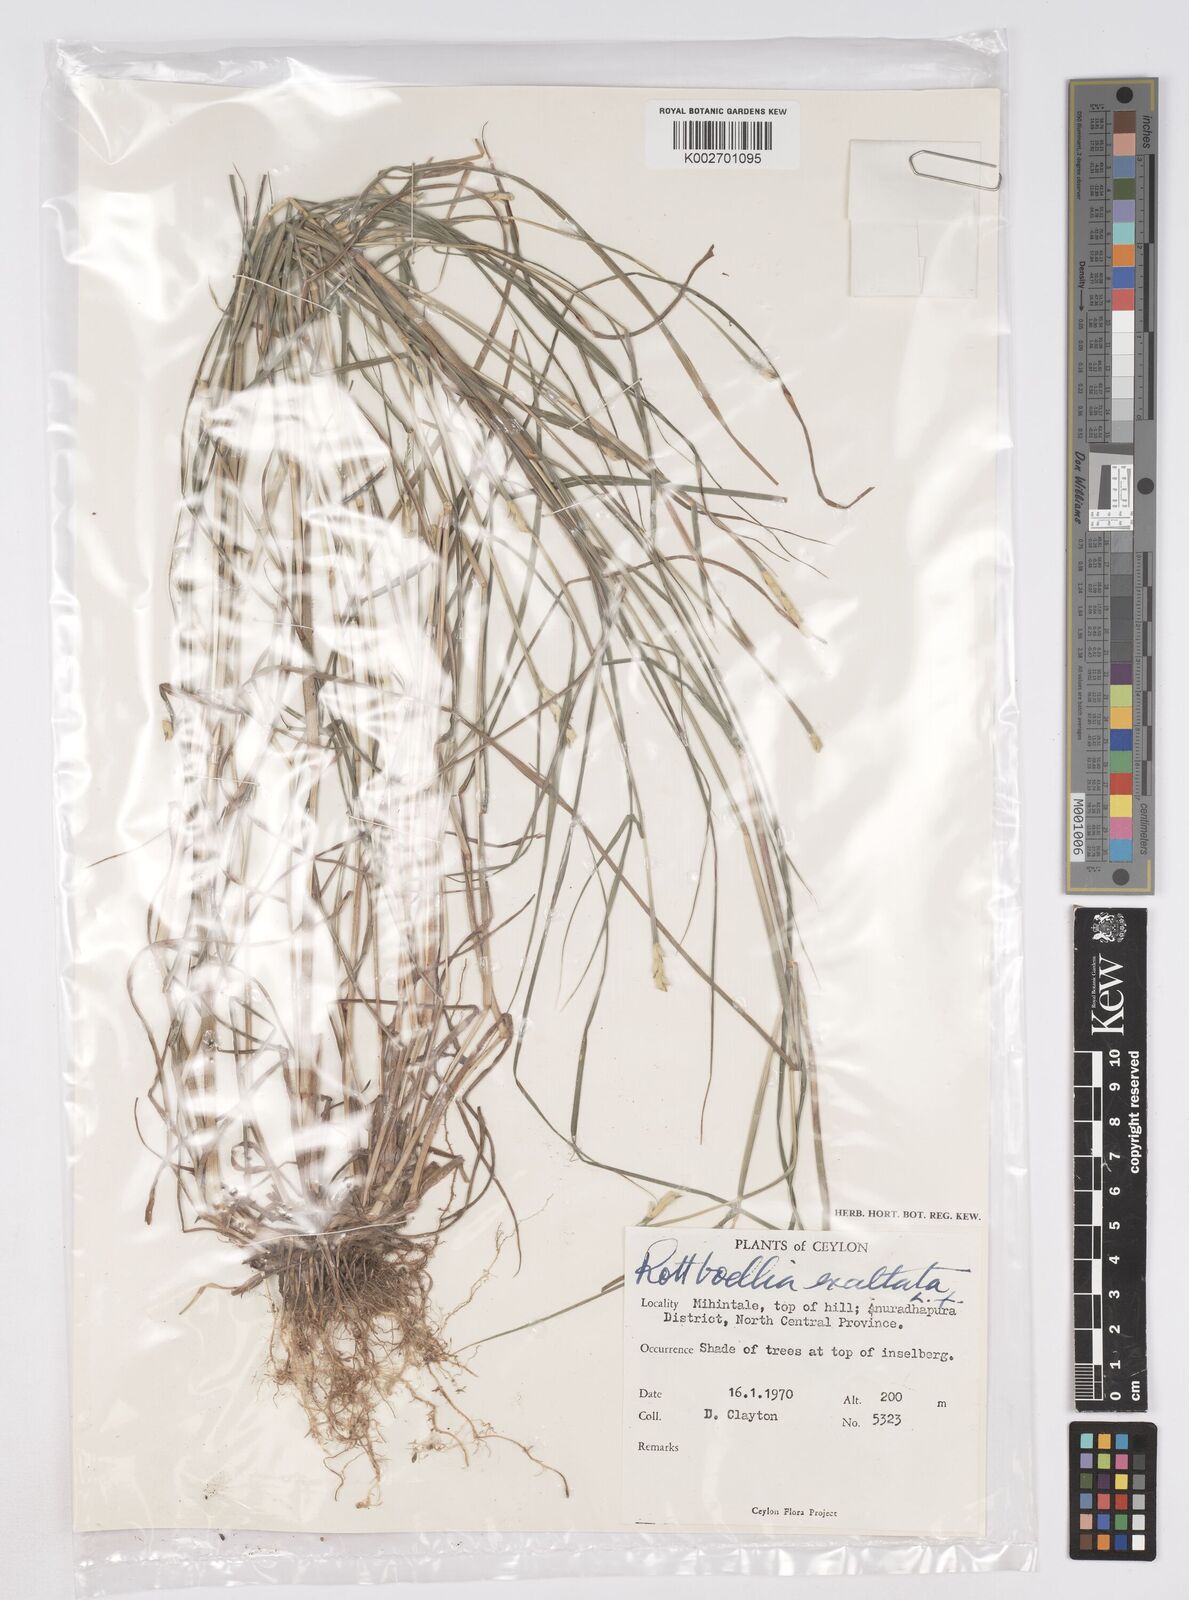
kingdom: Plantae
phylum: Tracheophyta
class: Liliopsida
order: Poales
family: Poaceae
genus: Ophiuros
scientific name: Ophiuros exaltatus
